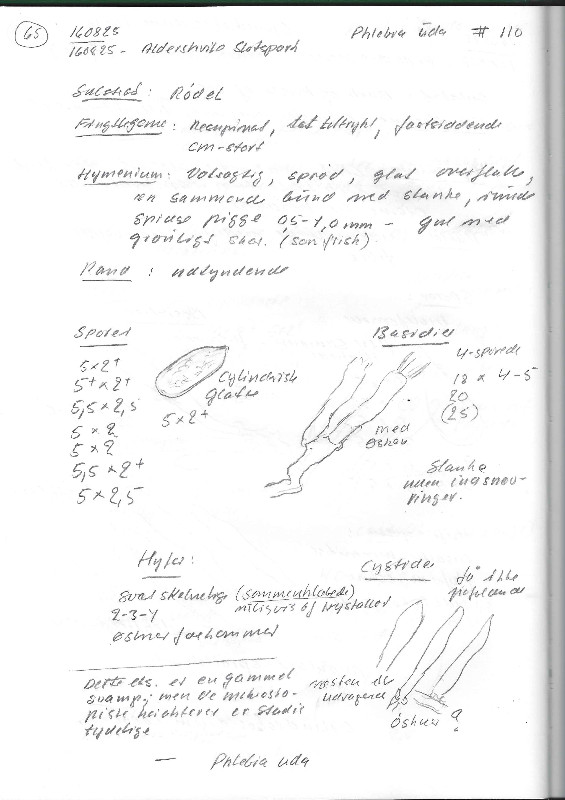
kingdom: Fungi
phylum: Basidiomycota
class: Agaricomycetes
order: Polyporales
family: Meruliaceae
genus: Mycoacia
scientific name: Mycoacia uda
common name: citrongul vokspig
